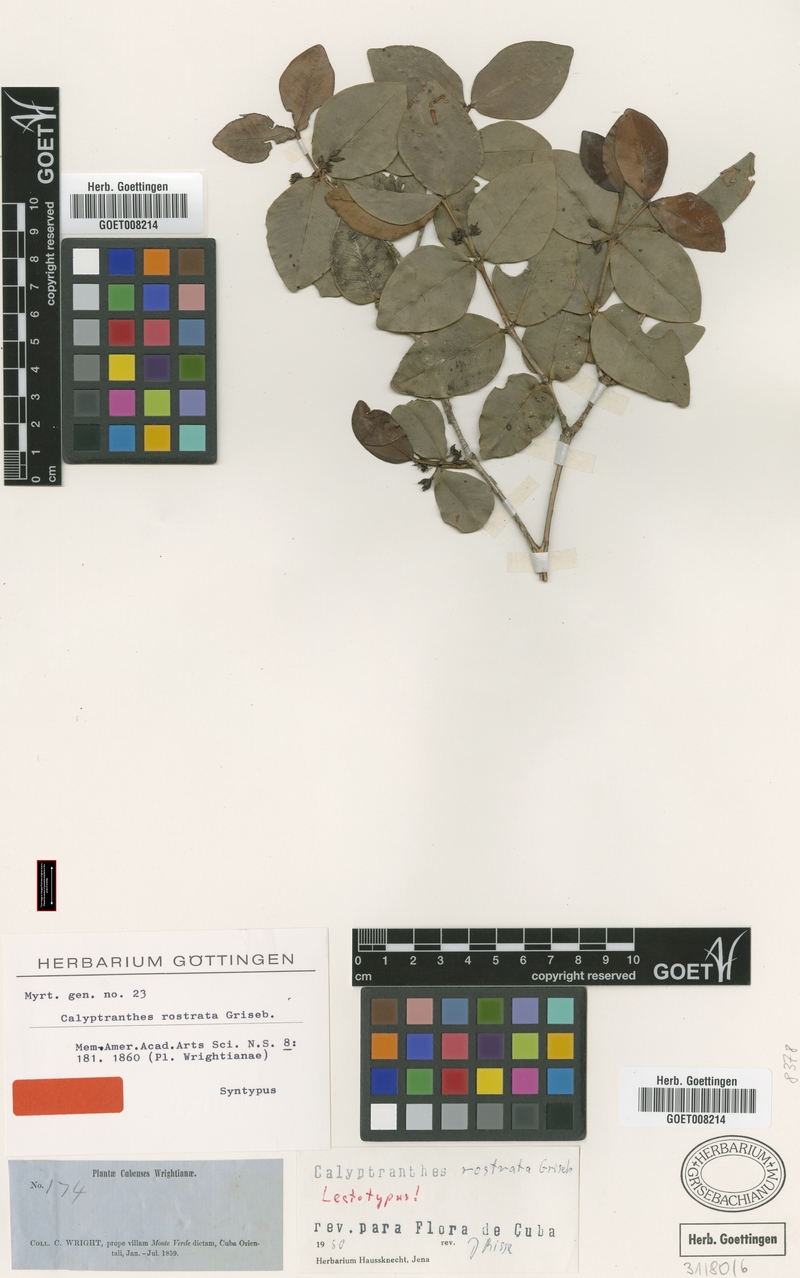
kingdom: Plantae
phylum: Tracheophyta
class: Magnoliopsida
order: Myrtales
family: Myrtaceae
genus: Myrcia
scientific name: Myrcia adunca
